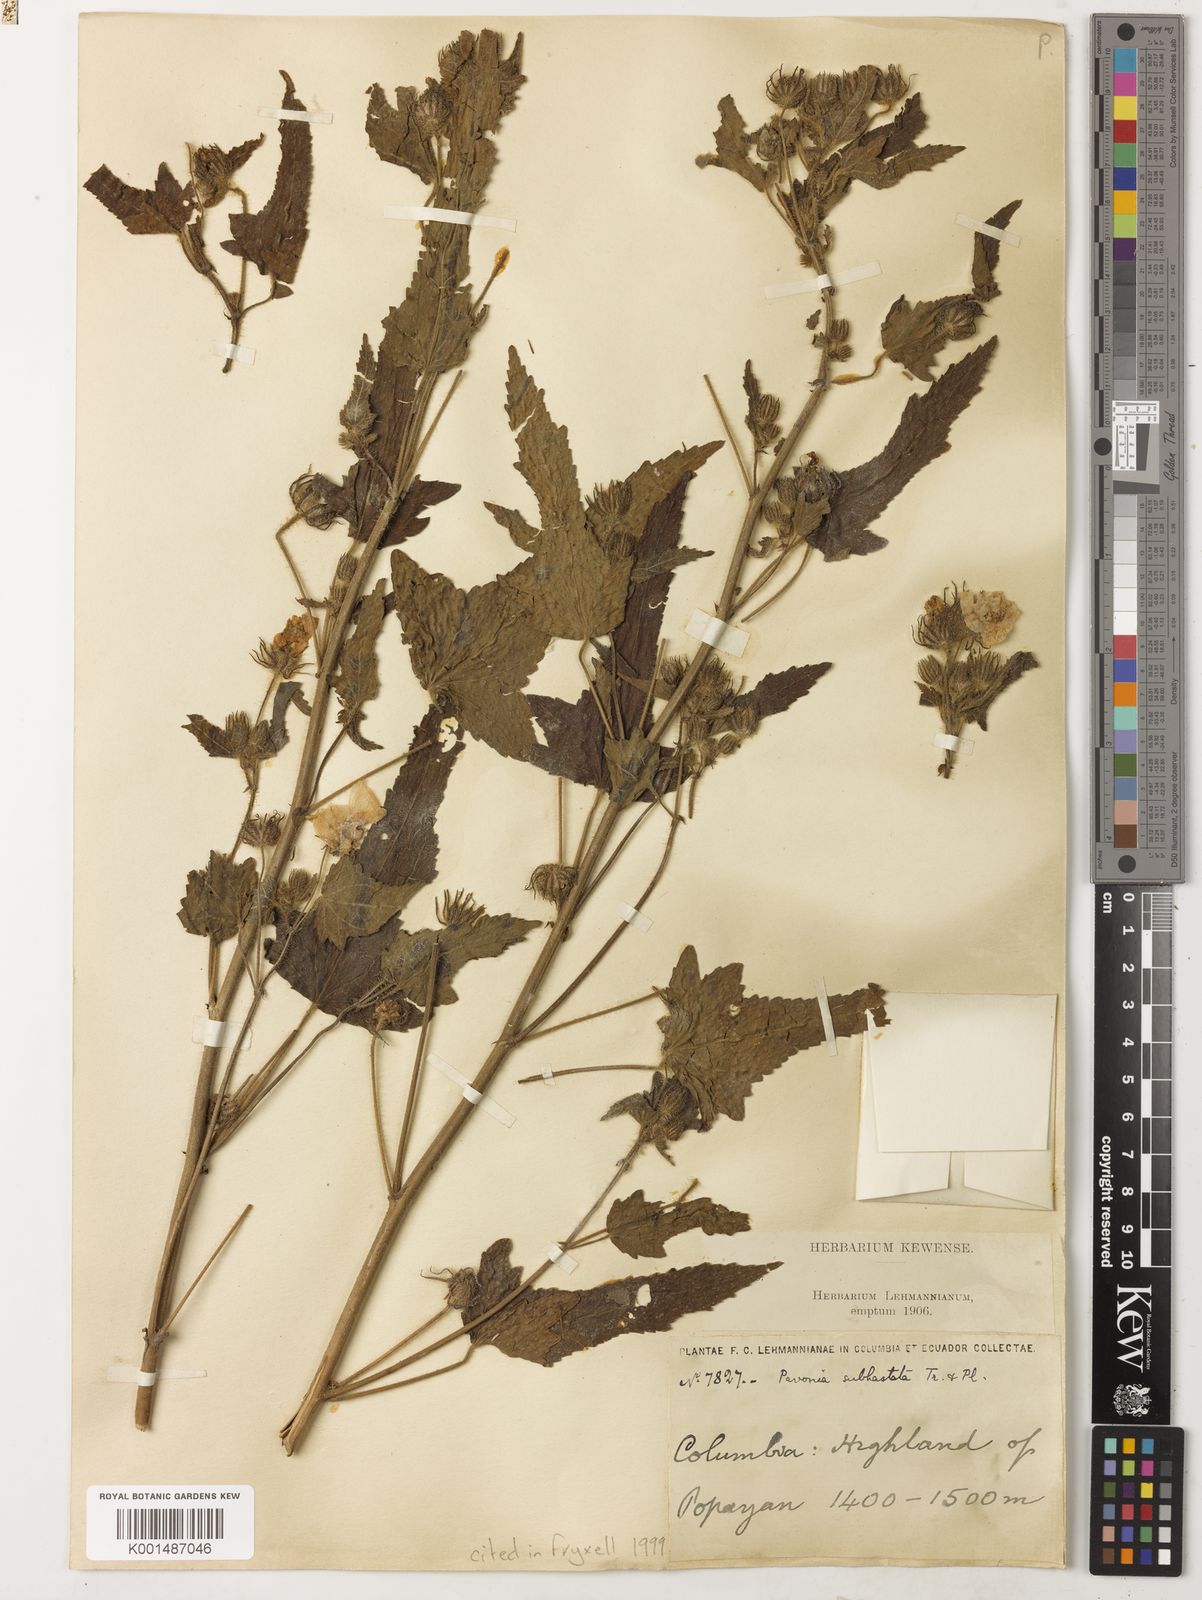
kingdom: Plantae
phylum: Tracheophyta
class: Magnoliopsida
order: Malvales
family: Malvaceae
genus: Pavonia
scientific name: Pavonia subhastata
